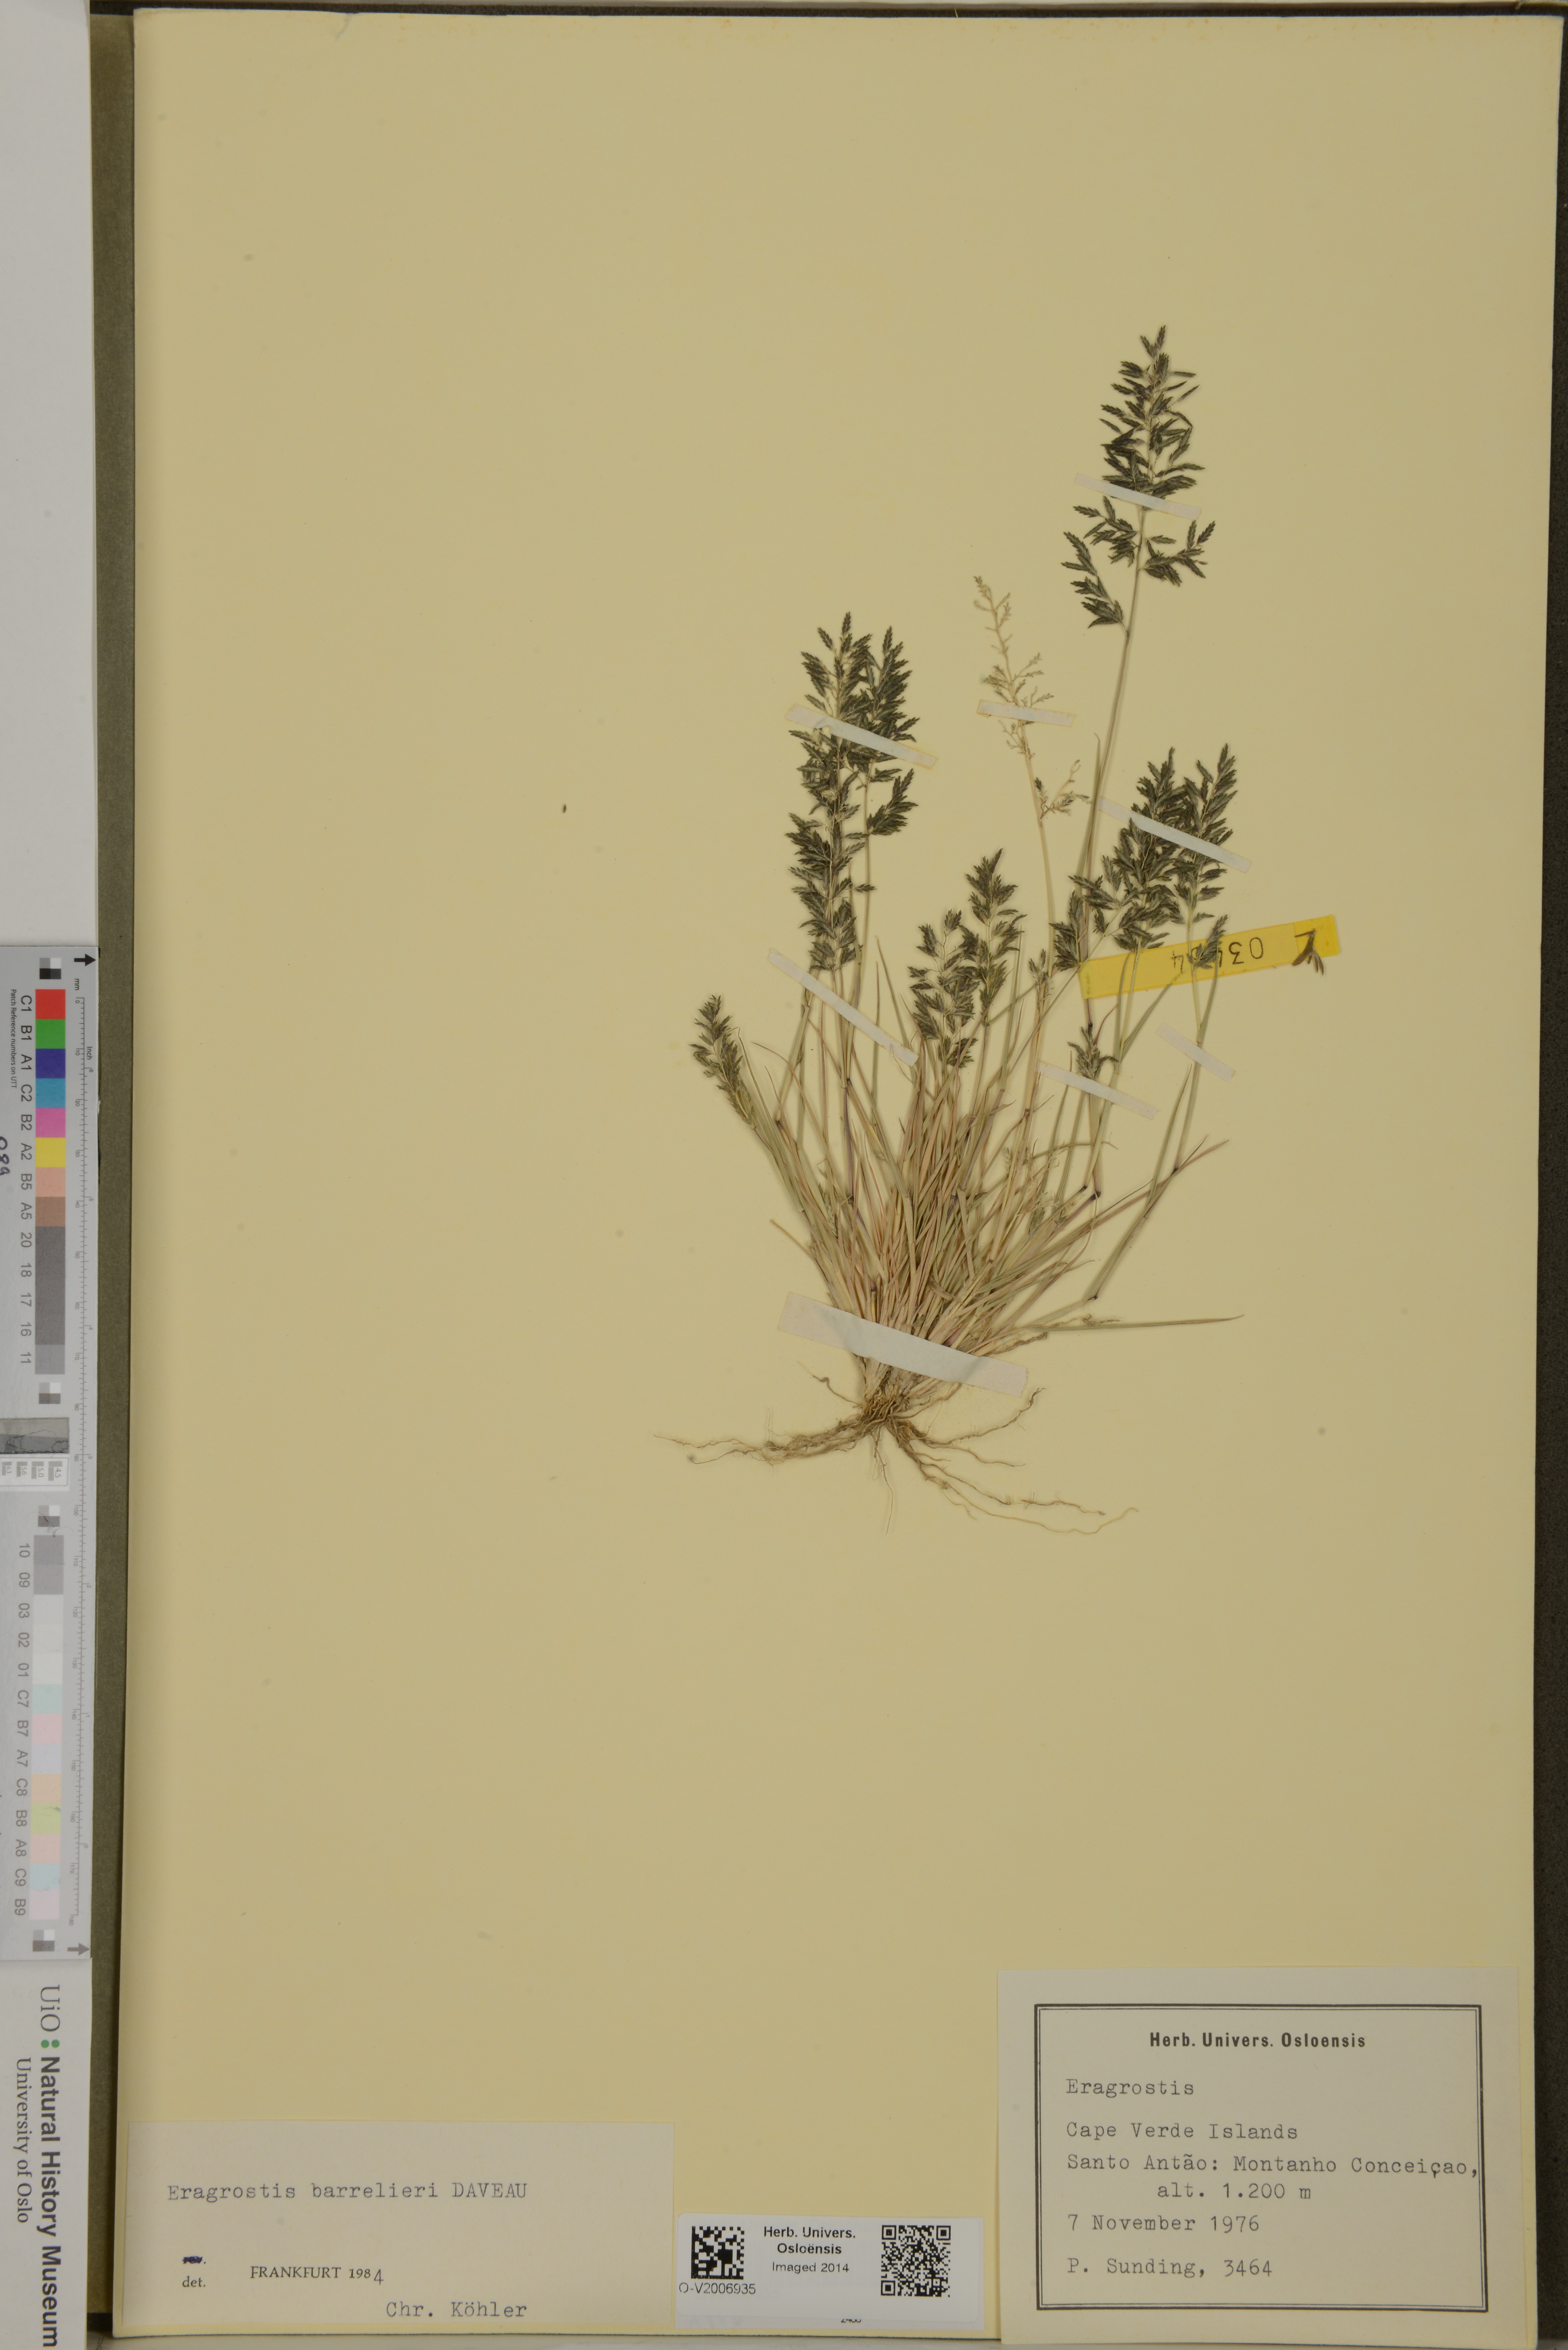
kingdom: Plantae
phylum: Tracheophyta
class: Liliopsida
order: Poales
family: Poaceae
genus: Eragrostis
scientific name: Eragrostis barrelieri
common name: Mediterranean lovegrass
